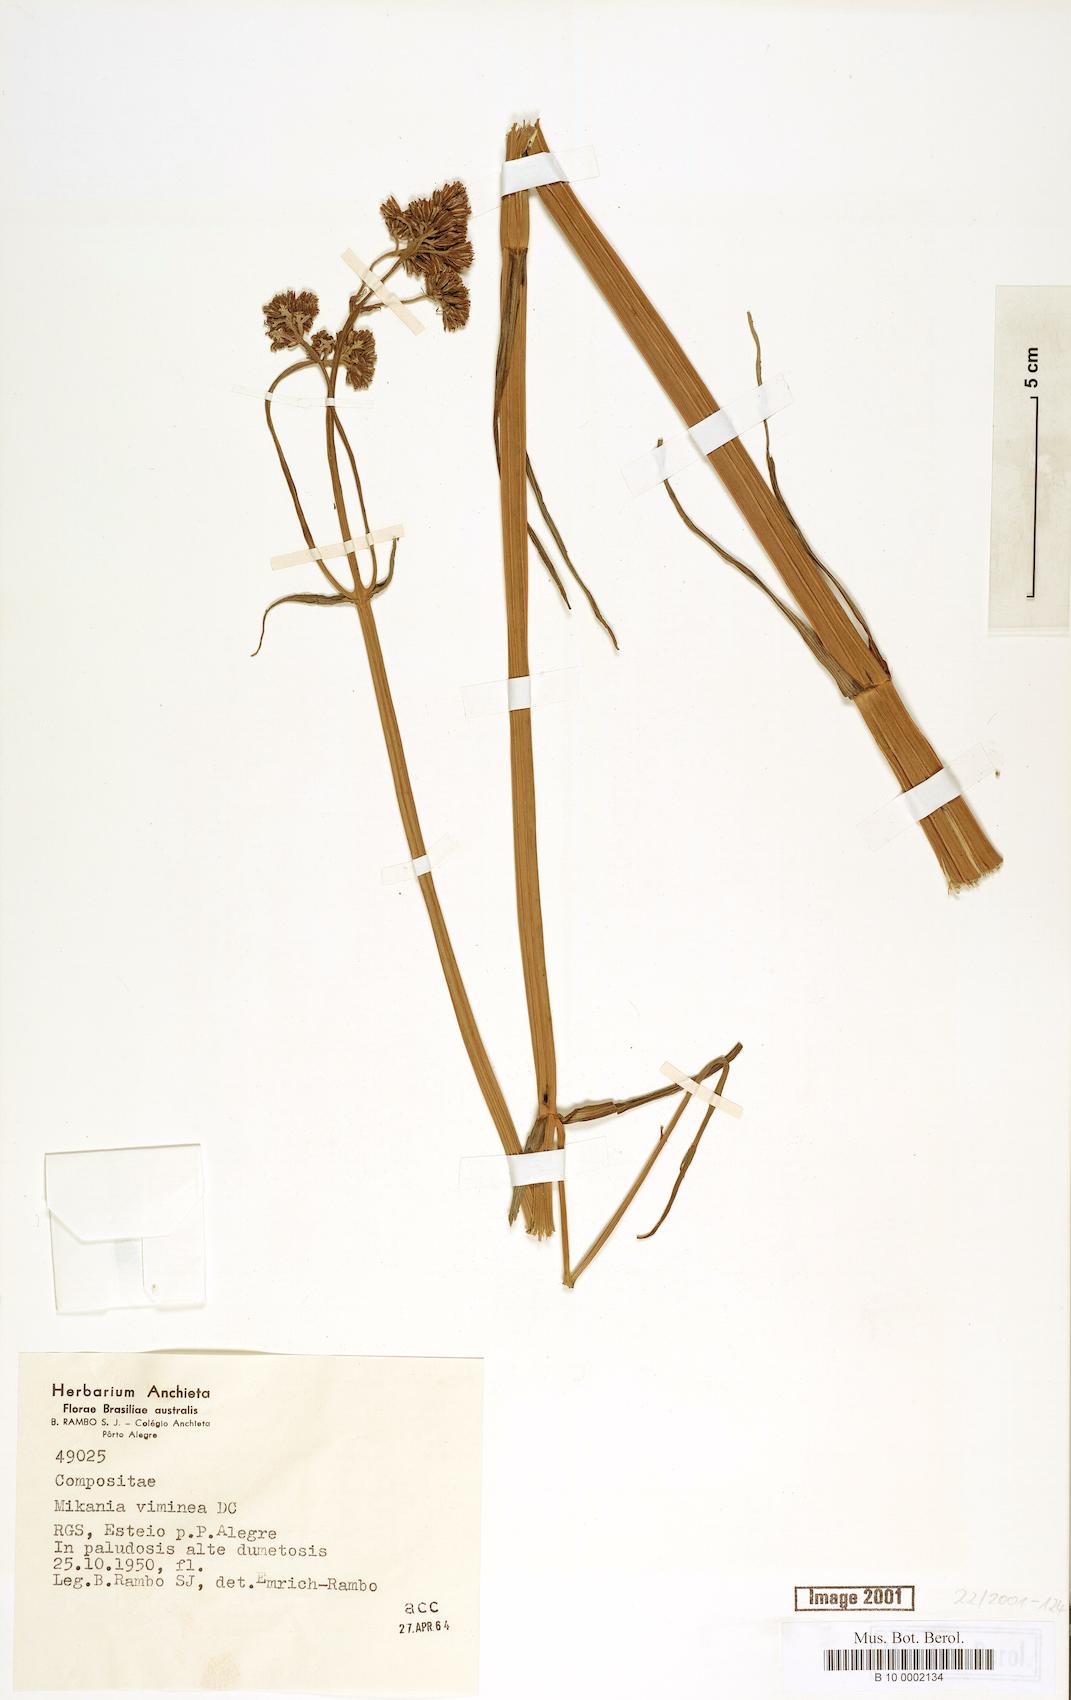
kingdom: Plantae
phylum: Tracheophyta
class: Magnoliopsida
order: Asterales
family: Asteraceae
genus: Mikania
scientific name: Mikania viminea
